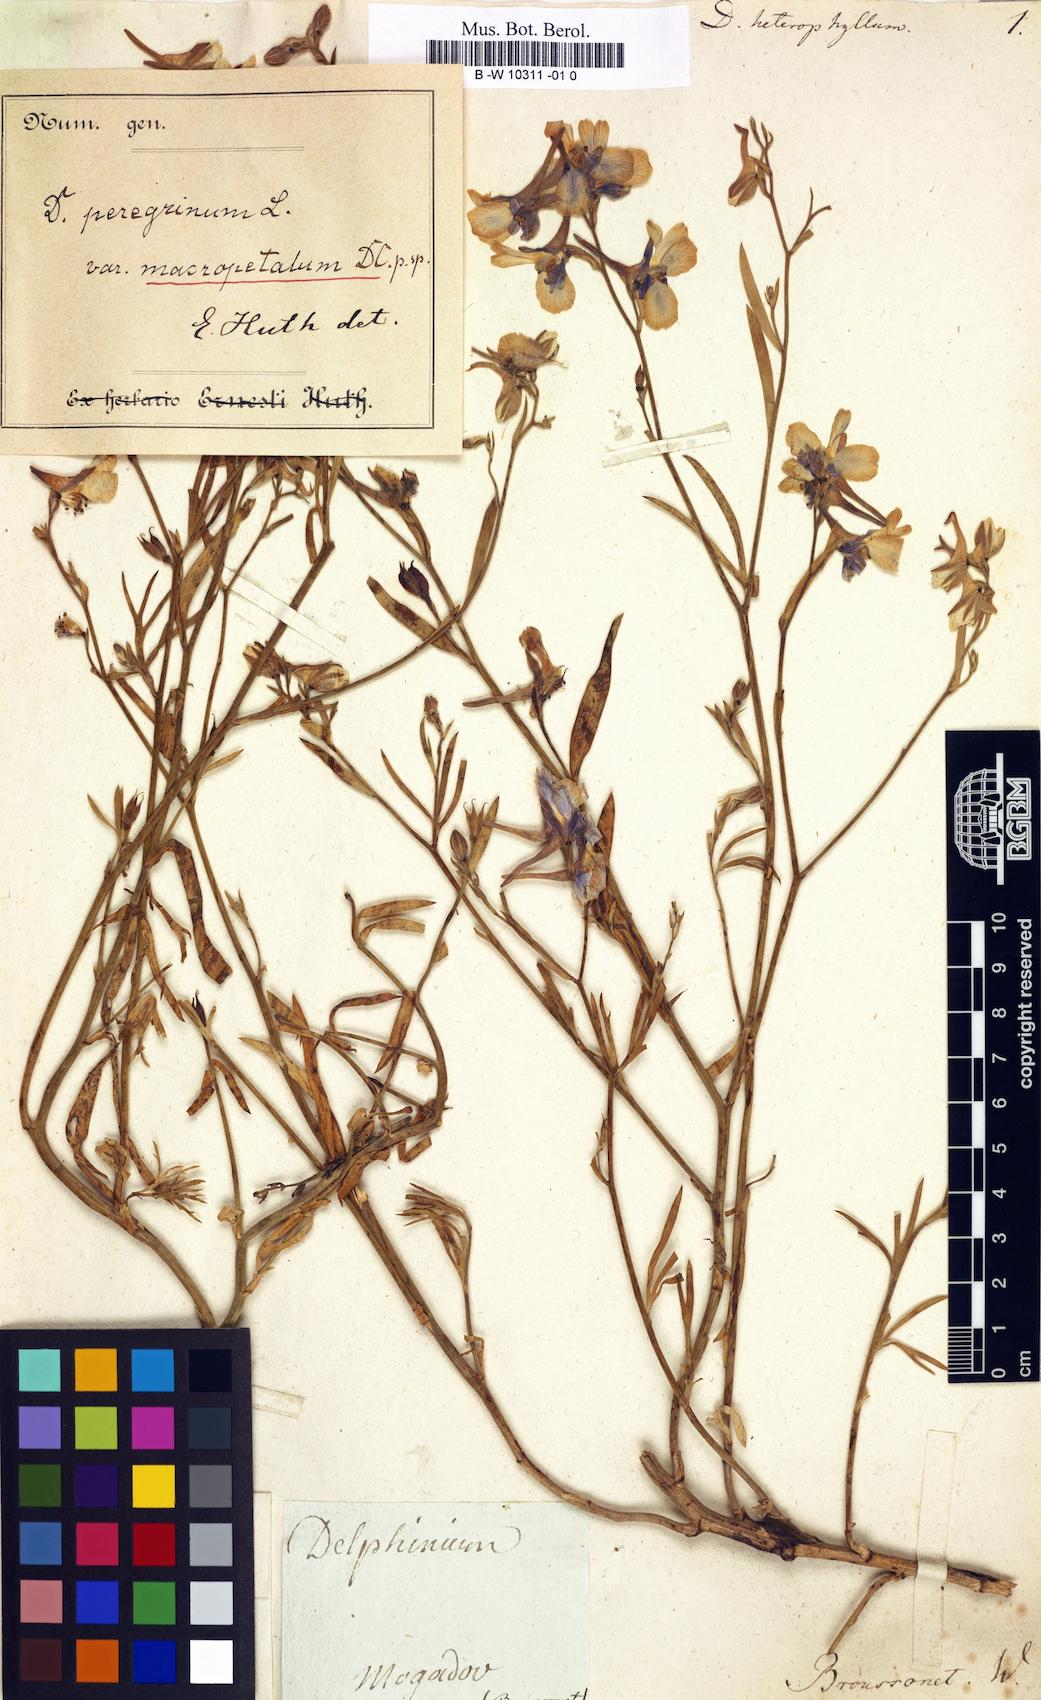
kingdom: Plantae
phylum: Tracheophyta
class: Magnoliopsida
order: Ranunculales
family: Ranunculaceae
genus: Delphinium
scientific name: Delphinium
